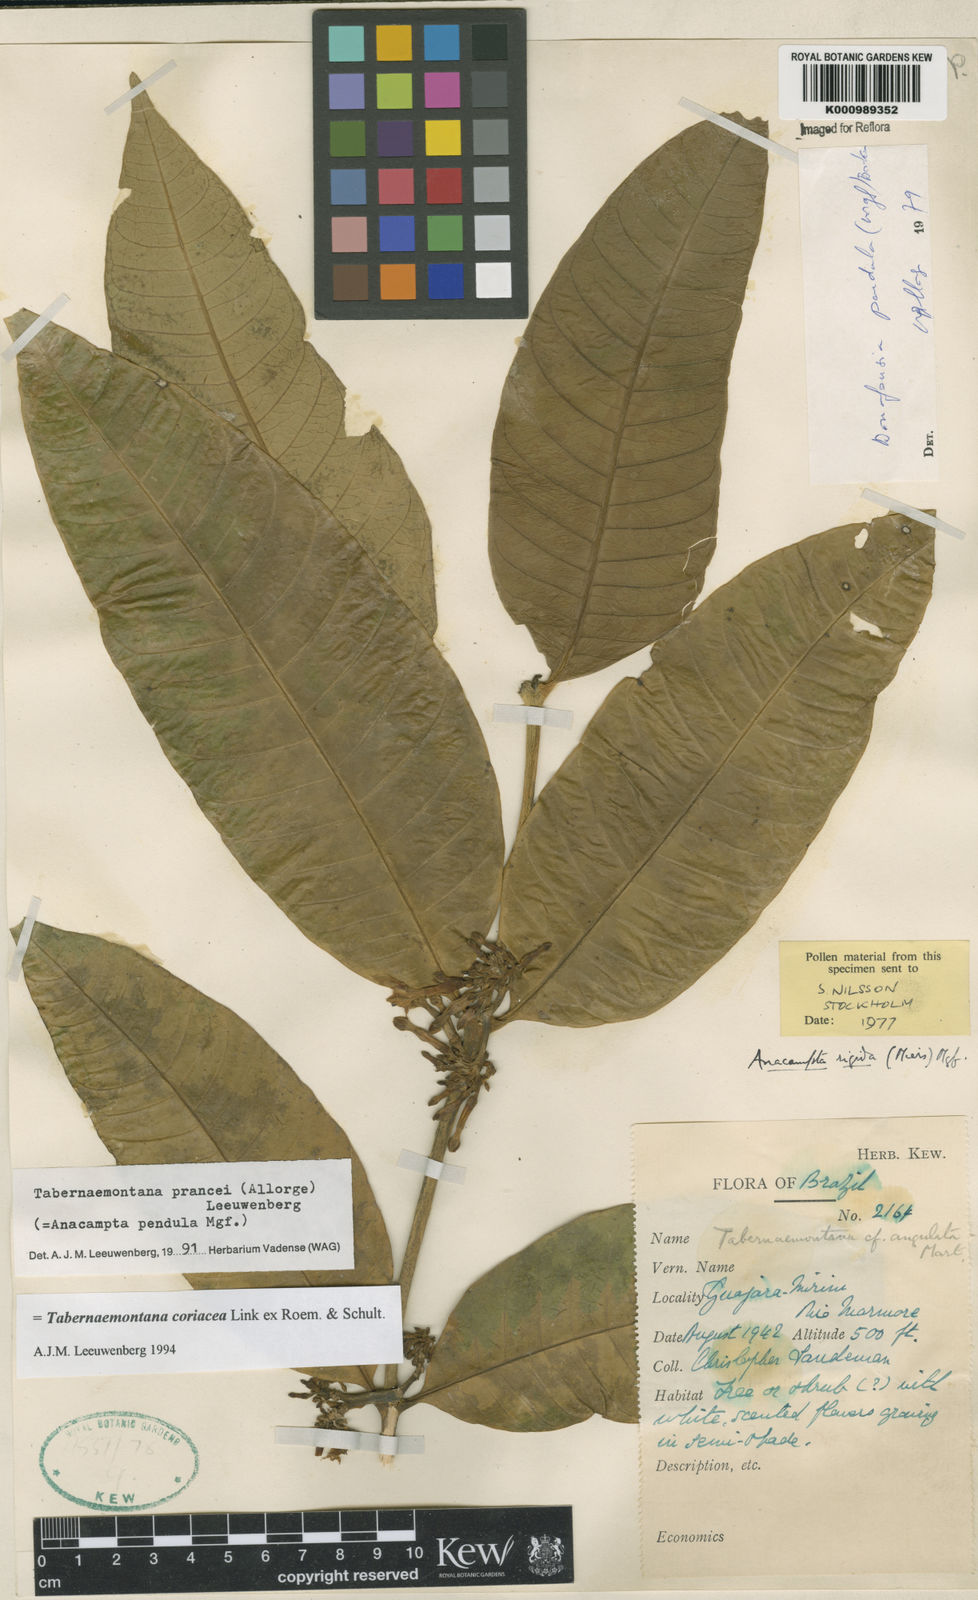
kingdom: Plantae
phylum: Tracheophyta
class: Magnoliopsida
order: Gentianales
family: Apocynaceae
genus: Tabernaemontana
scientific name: Tabernaemontana coriacea
